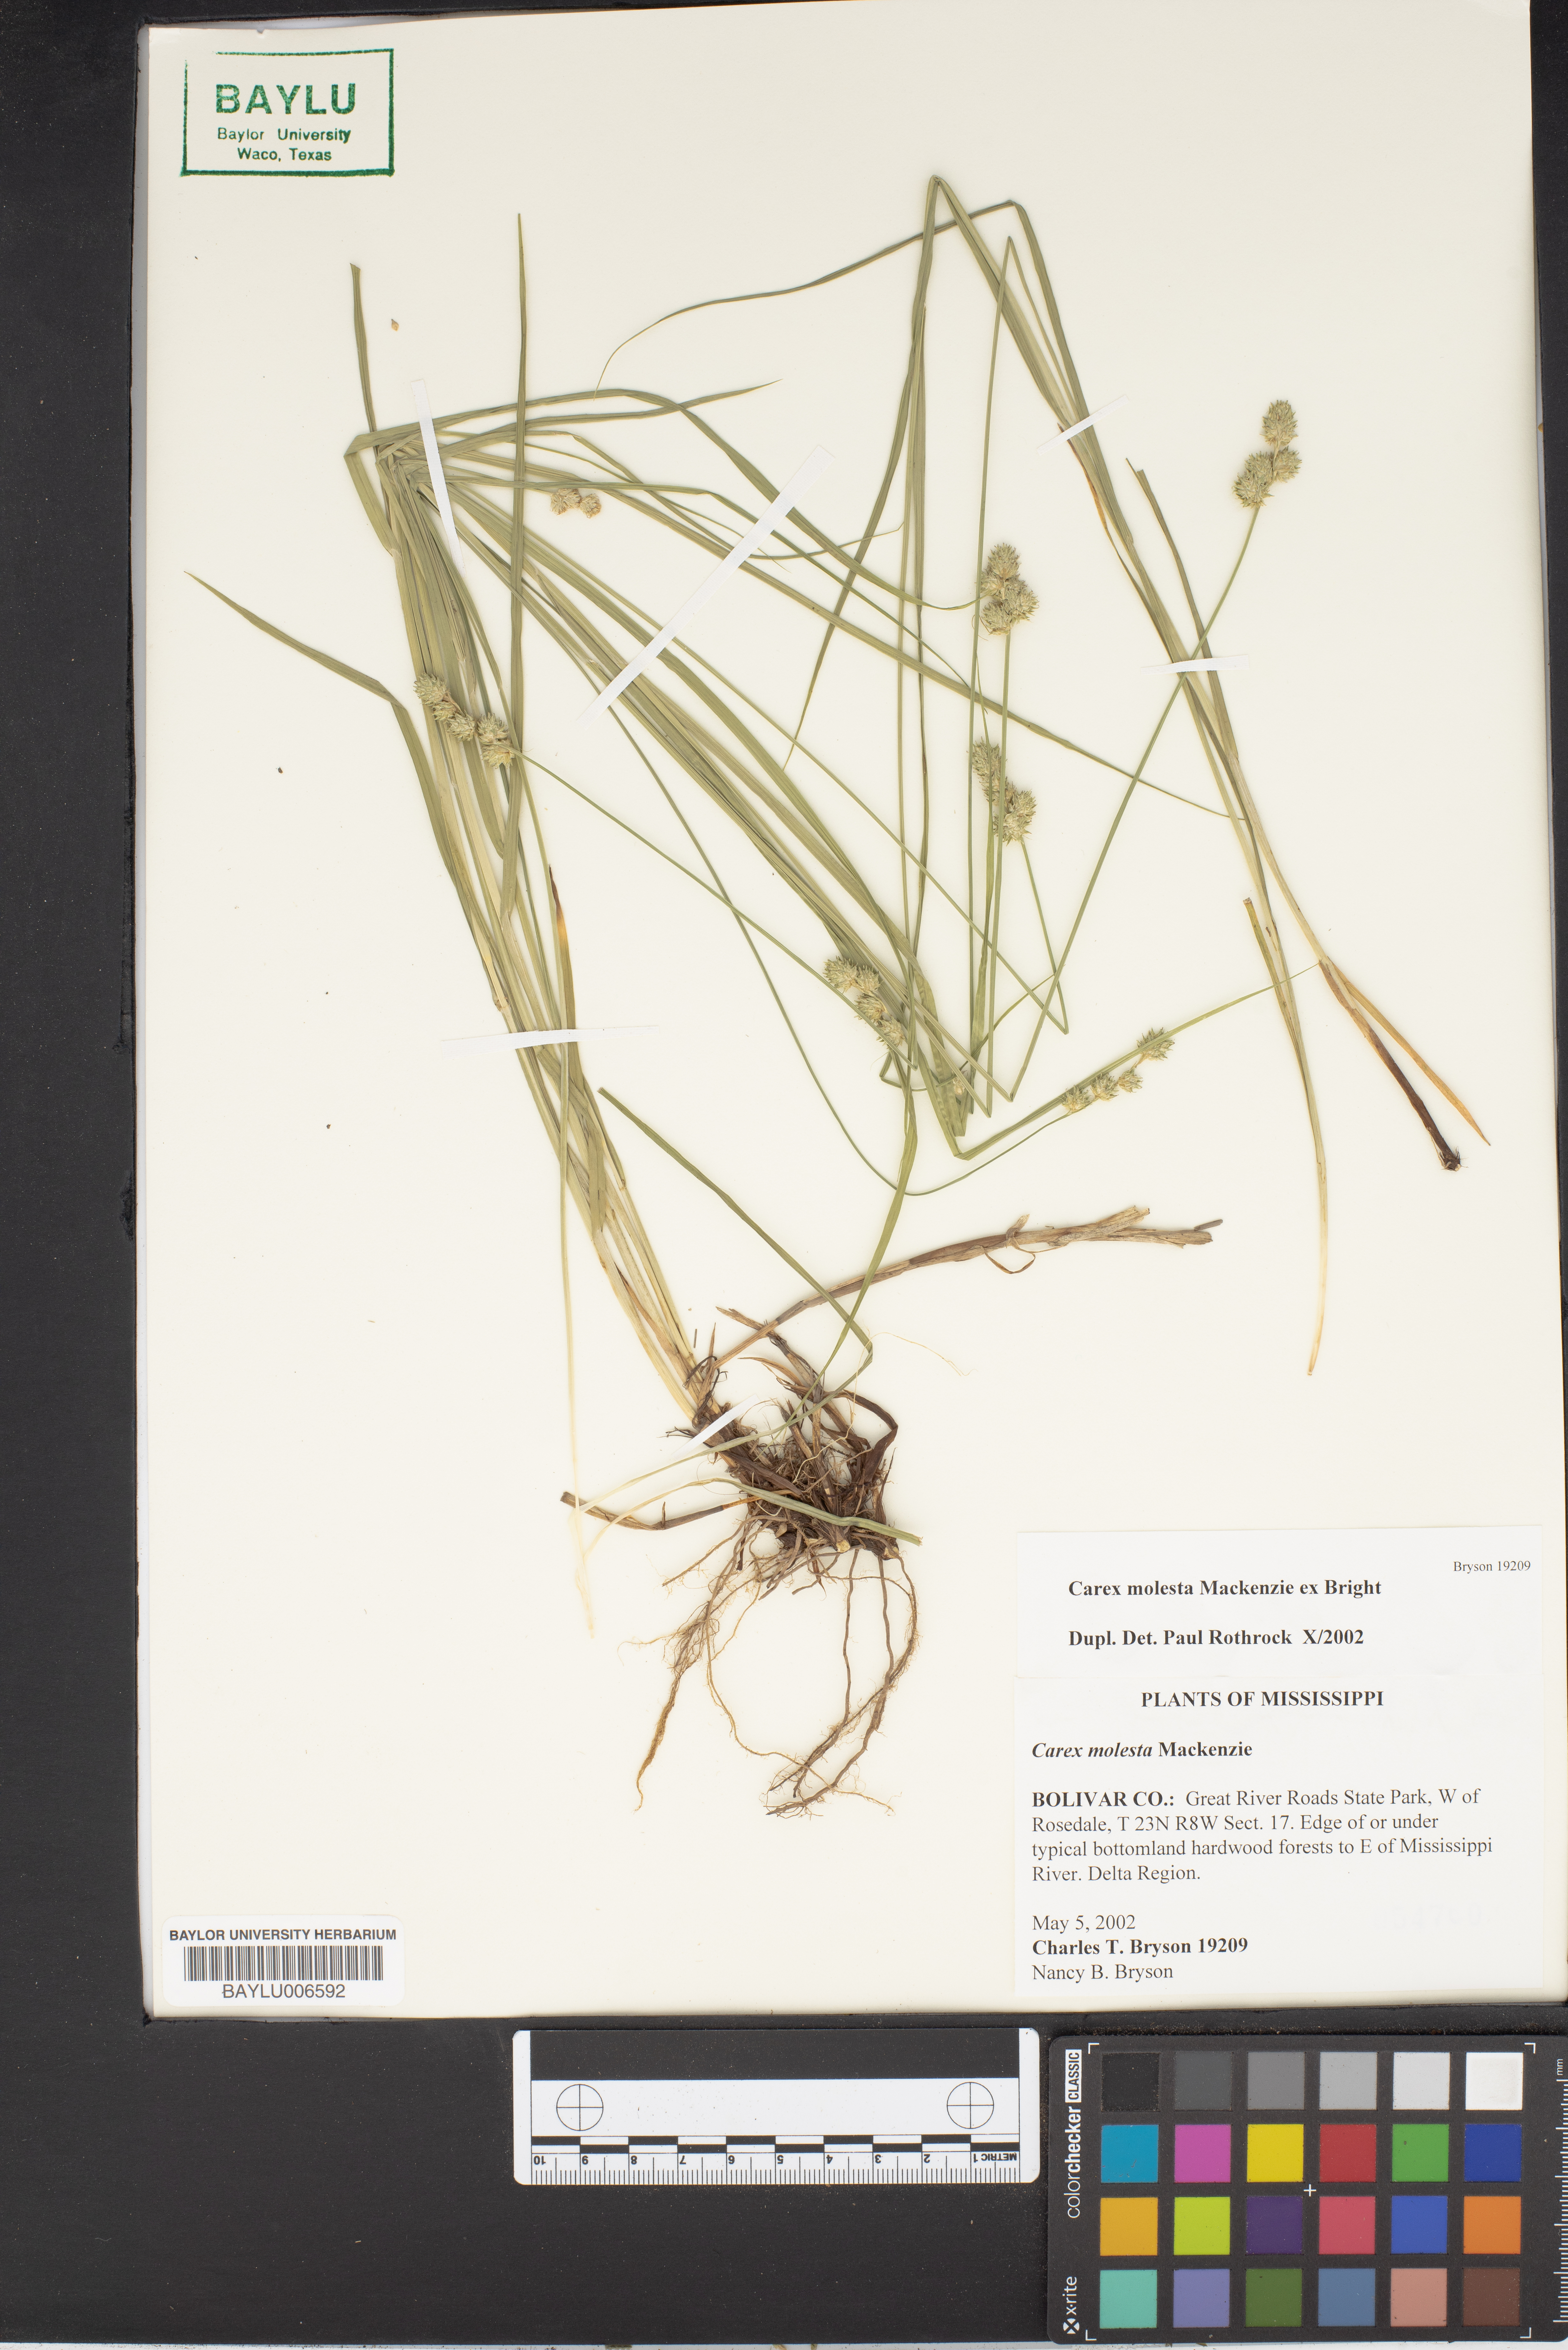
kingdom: Plantae
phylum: Tracheophyta
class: Liliopsida
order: Poales
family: Cyperaceae
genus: Carex
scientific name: Carex molesta
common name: Troublesome sedge
